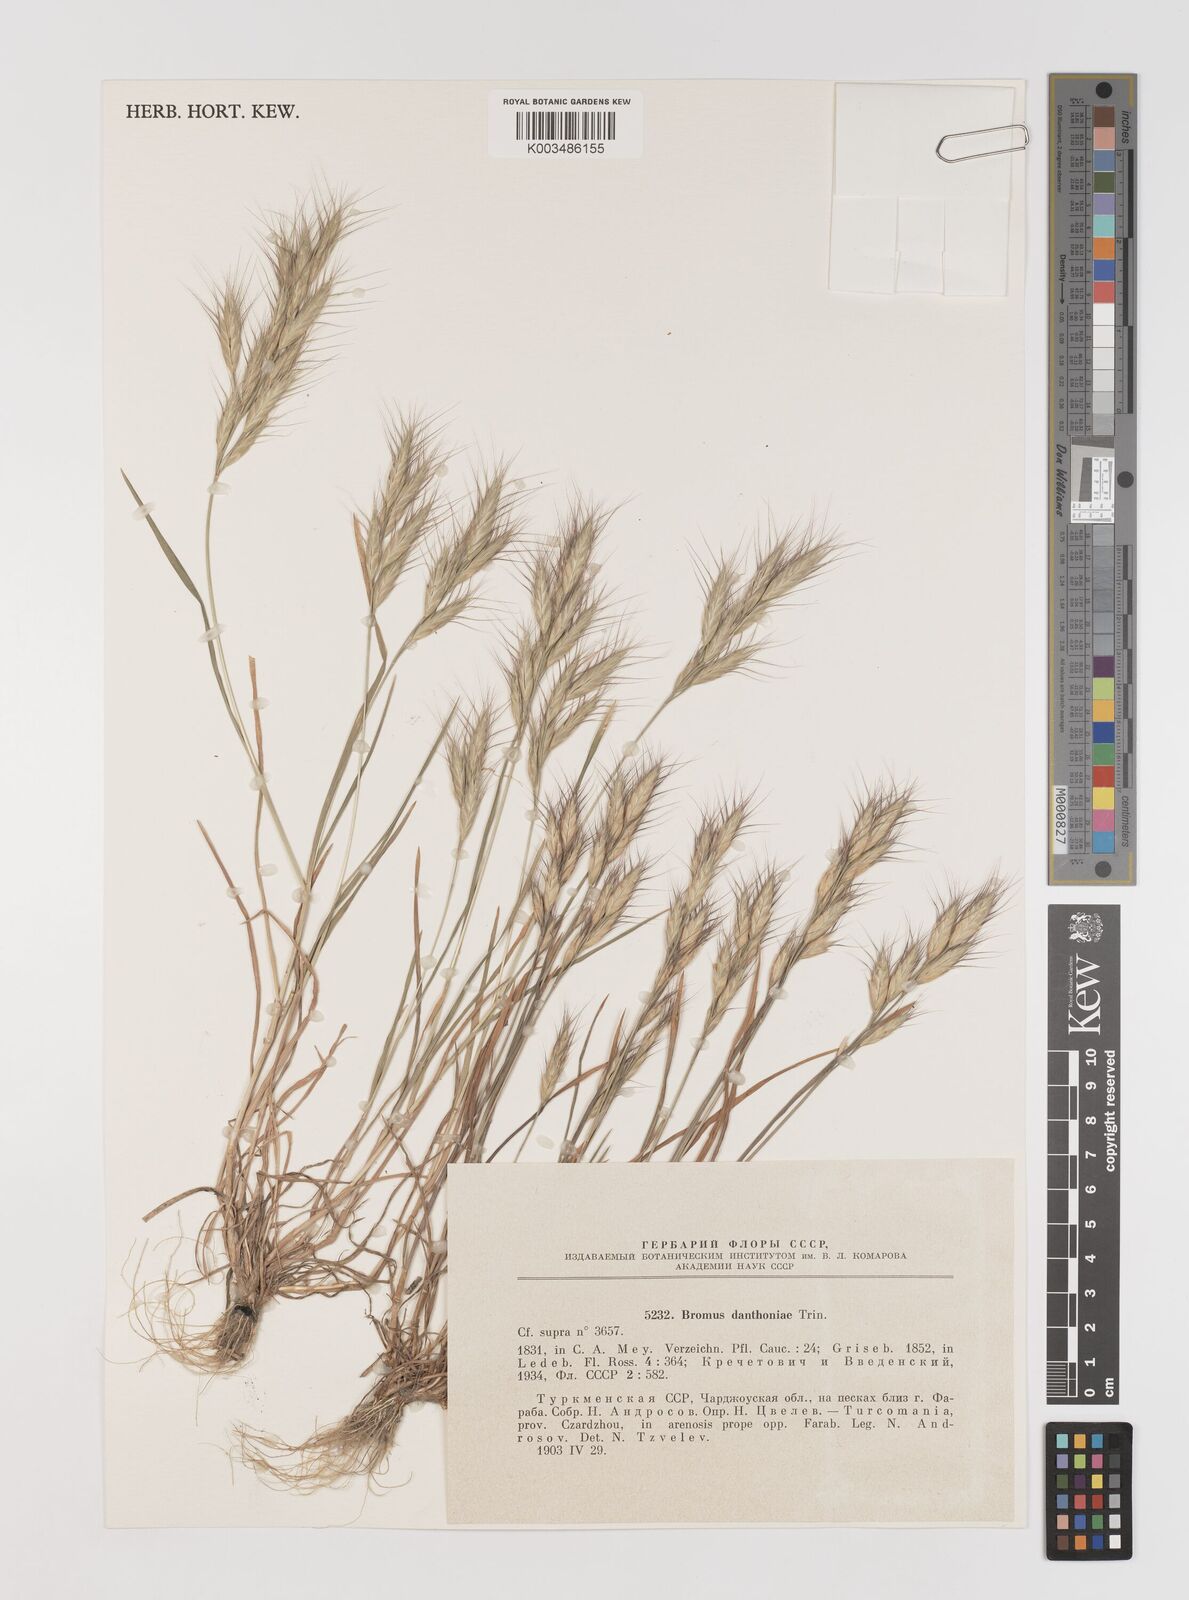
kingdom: Plantae
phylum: Tracheophyta
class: Liliopsida
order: Poales
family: Poaceae
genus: Bromus
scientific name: Bromus danthoniae
